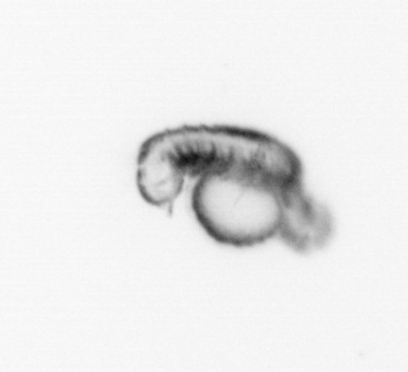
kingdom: Animalia
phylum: Annelida
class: Polychaeta
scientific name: Polychaeta
